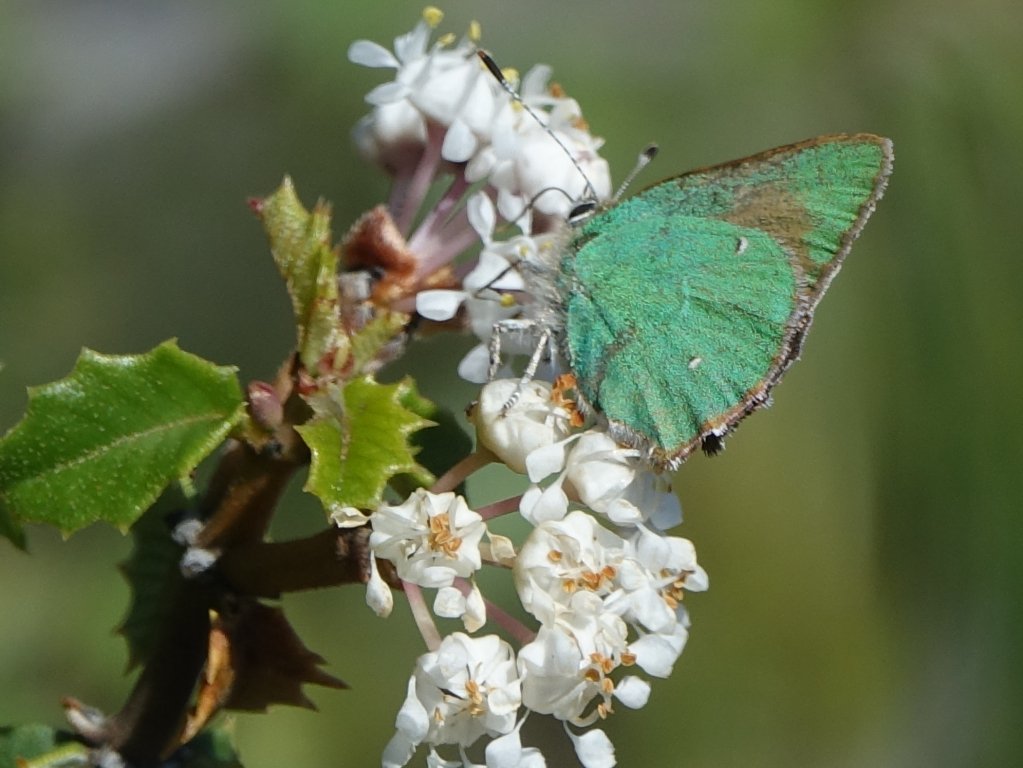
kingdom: Animalia
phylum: Arthropoda
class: Insecta
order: Lepidoptera
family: Lycaenidae
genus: Callophrys
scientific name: Callophrys dumetorum
